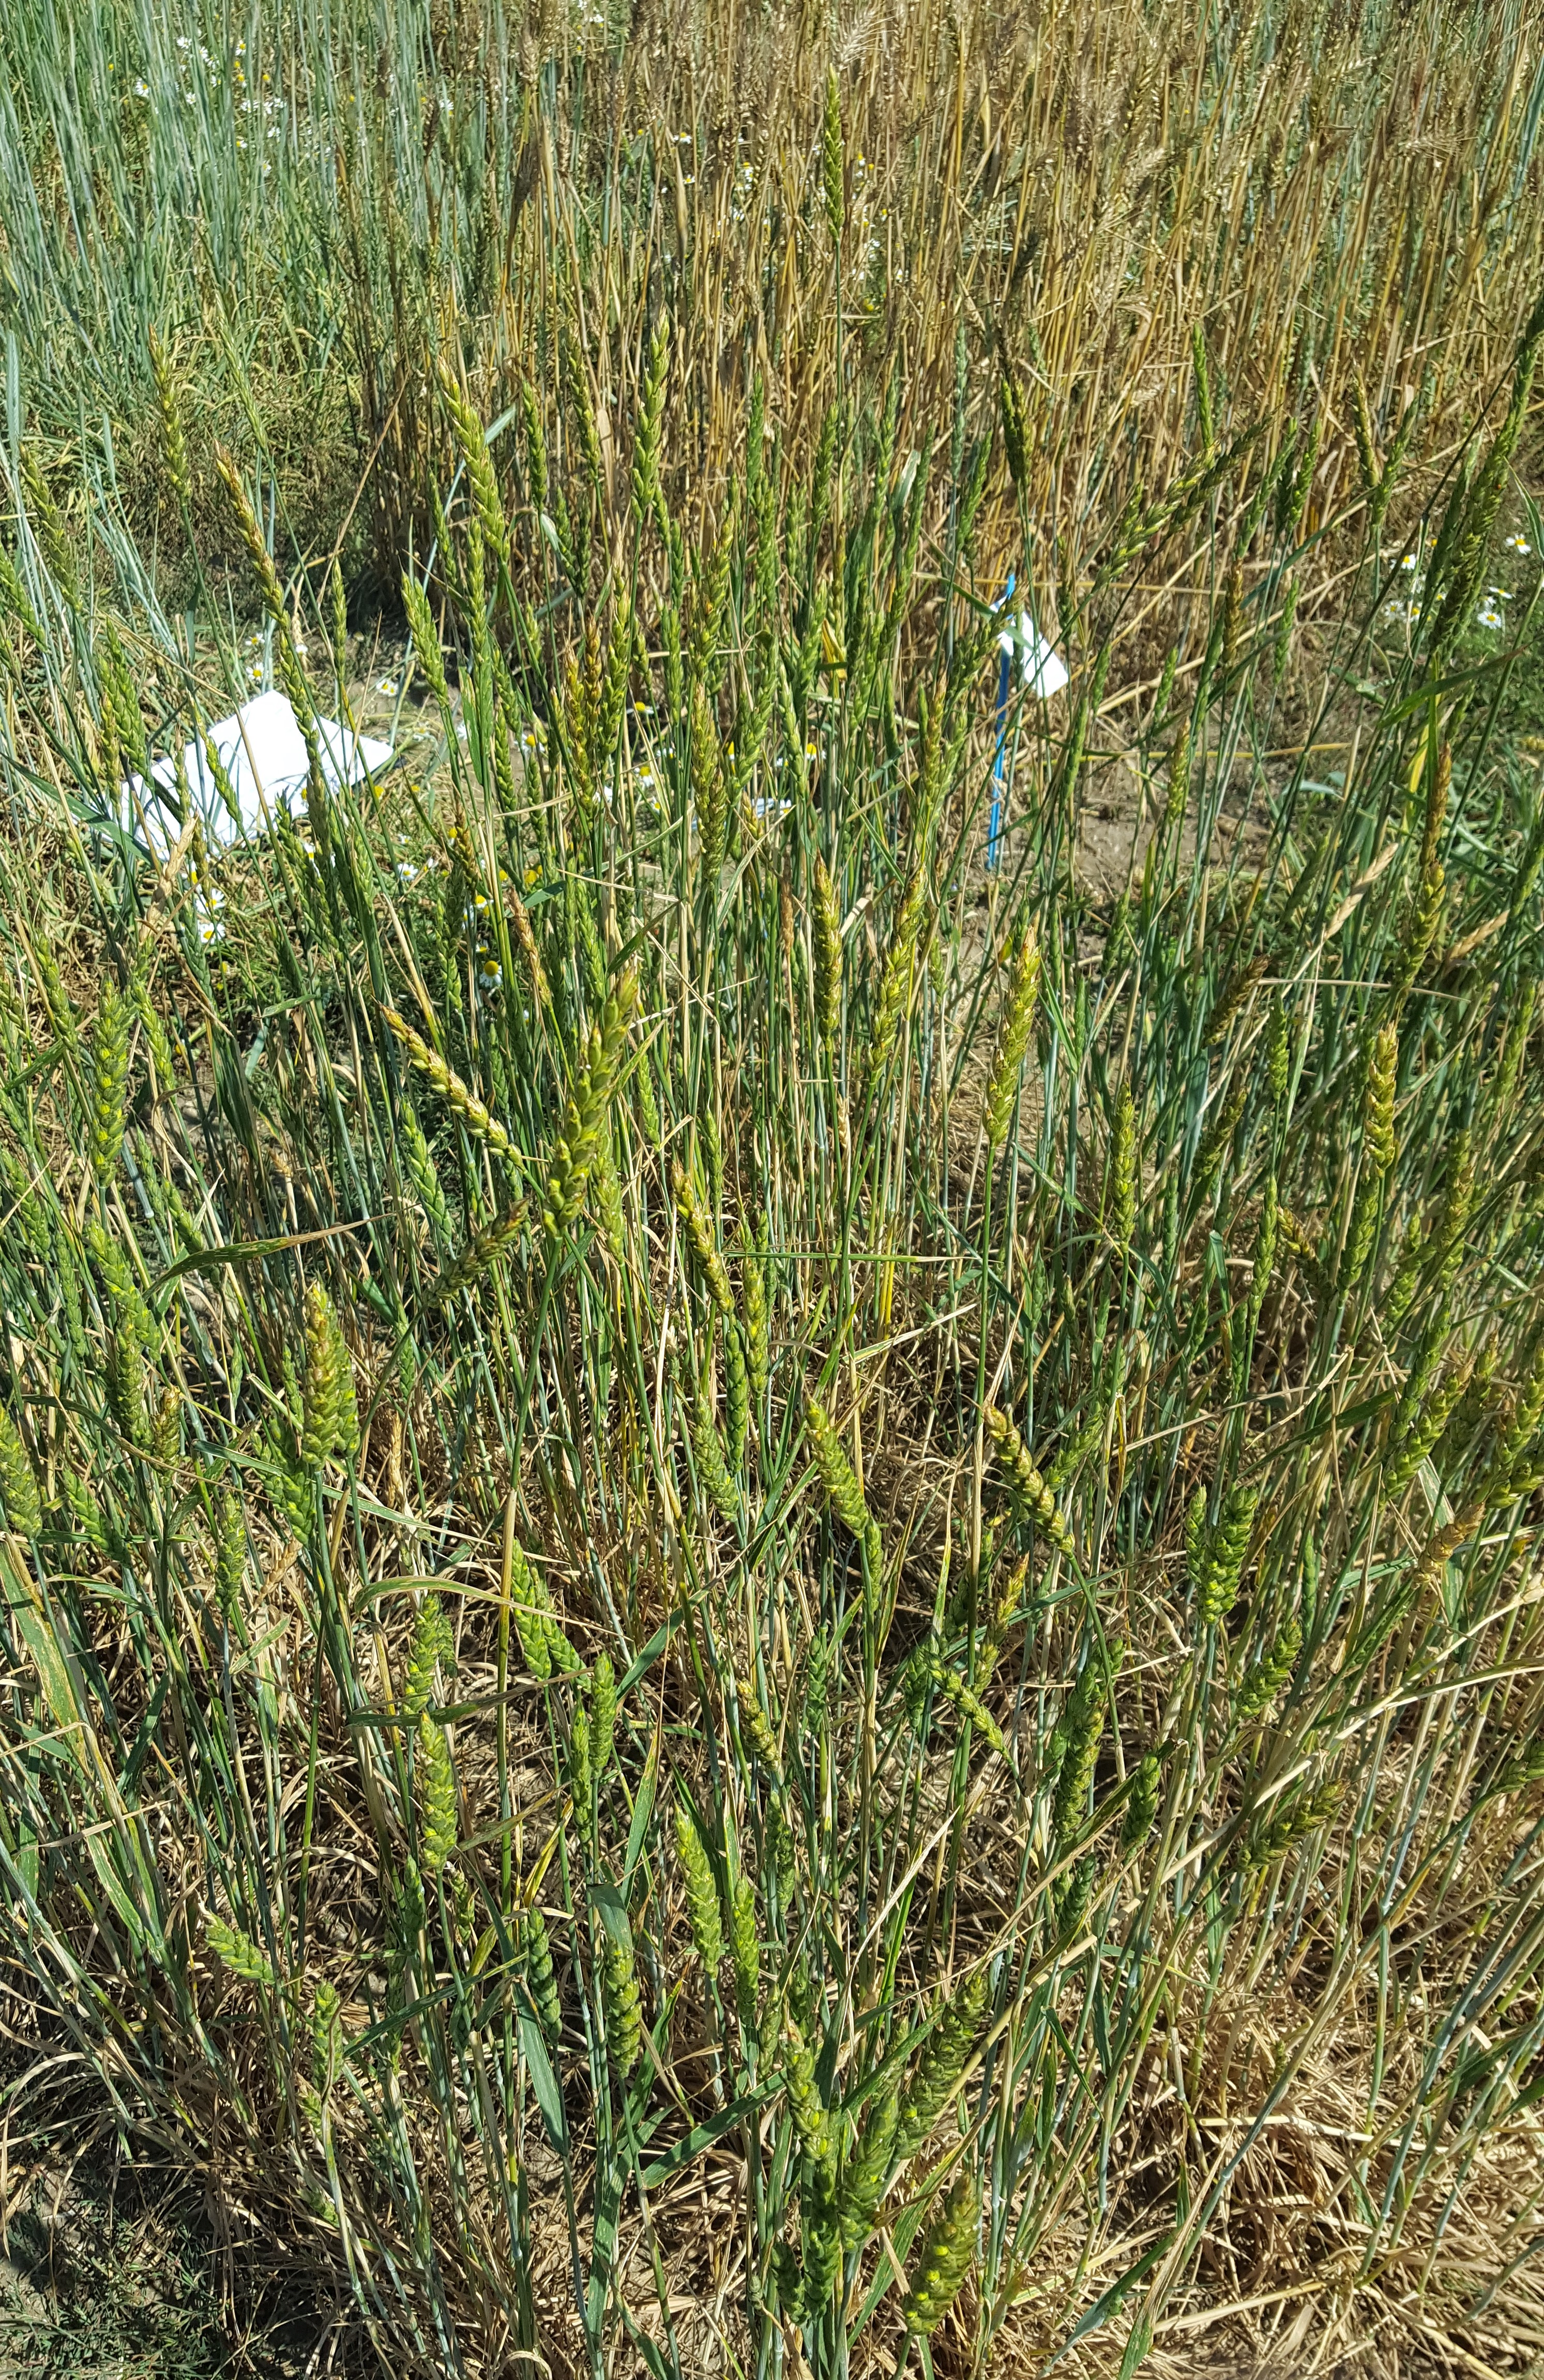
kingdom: Plantae
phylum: Tracheophyta
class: Liliopsida
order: Poales
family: Poaceae
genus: Triticum
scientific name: Triticum aestivum
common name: Common wheat
